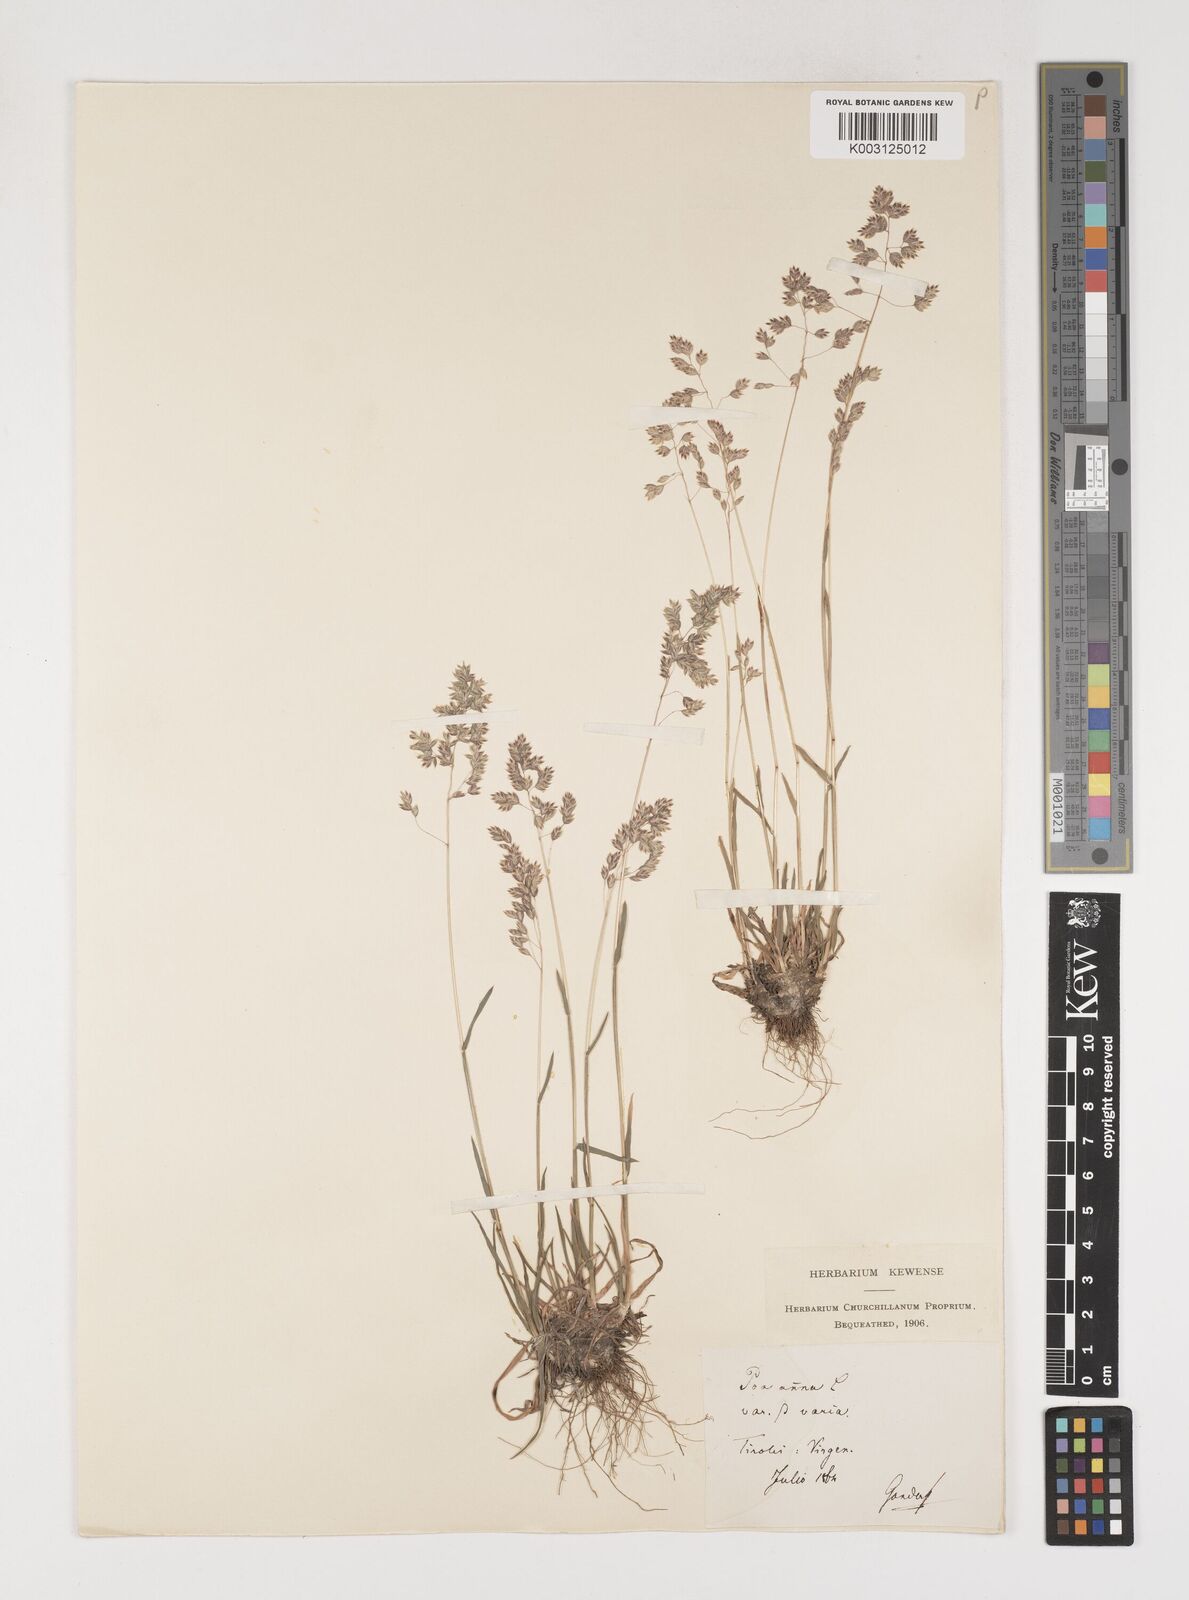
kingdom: Plantae
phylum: Tracheophyta
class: Liliopsida
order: Poales
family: Poaceae
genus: Poa
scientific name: Poa supina
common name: Supina bluegrass
